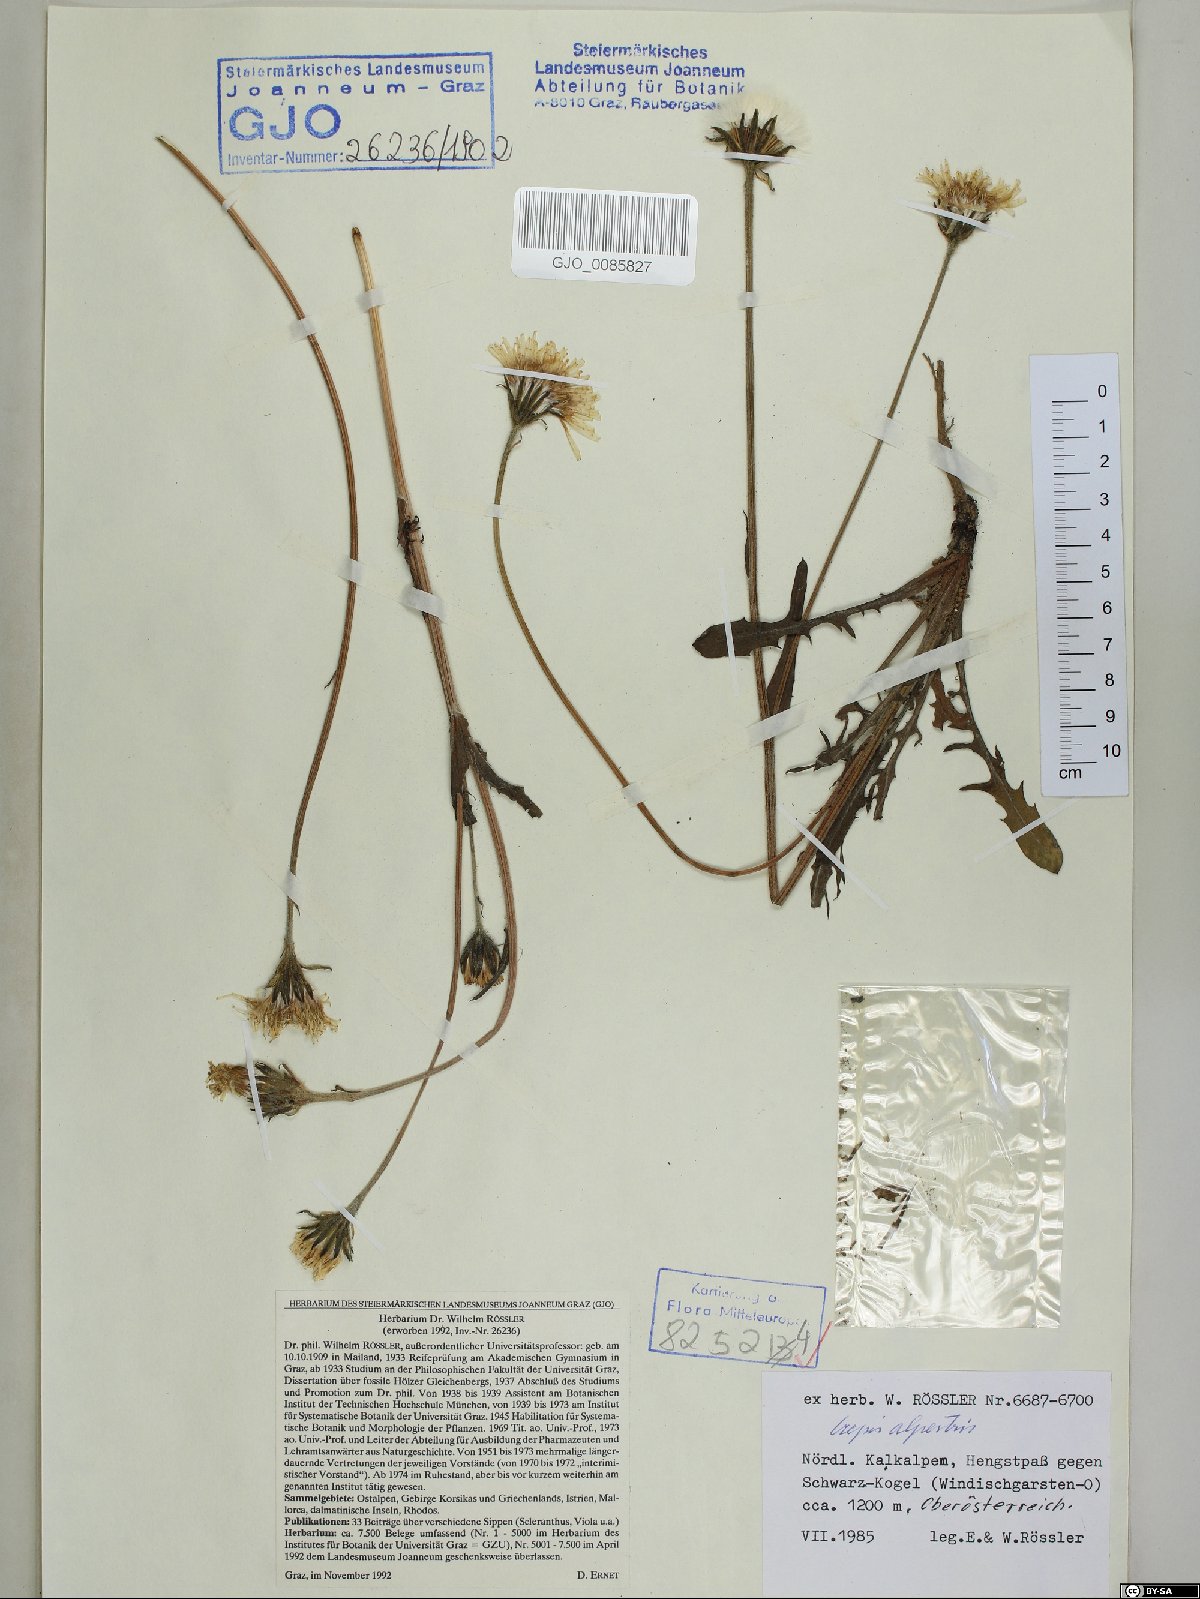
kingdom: Plantae
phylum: Tracheophyta
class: Magnoliopsida
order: Asterales
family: Asteraceae
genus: Crepis
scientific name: Crepis alpestris
